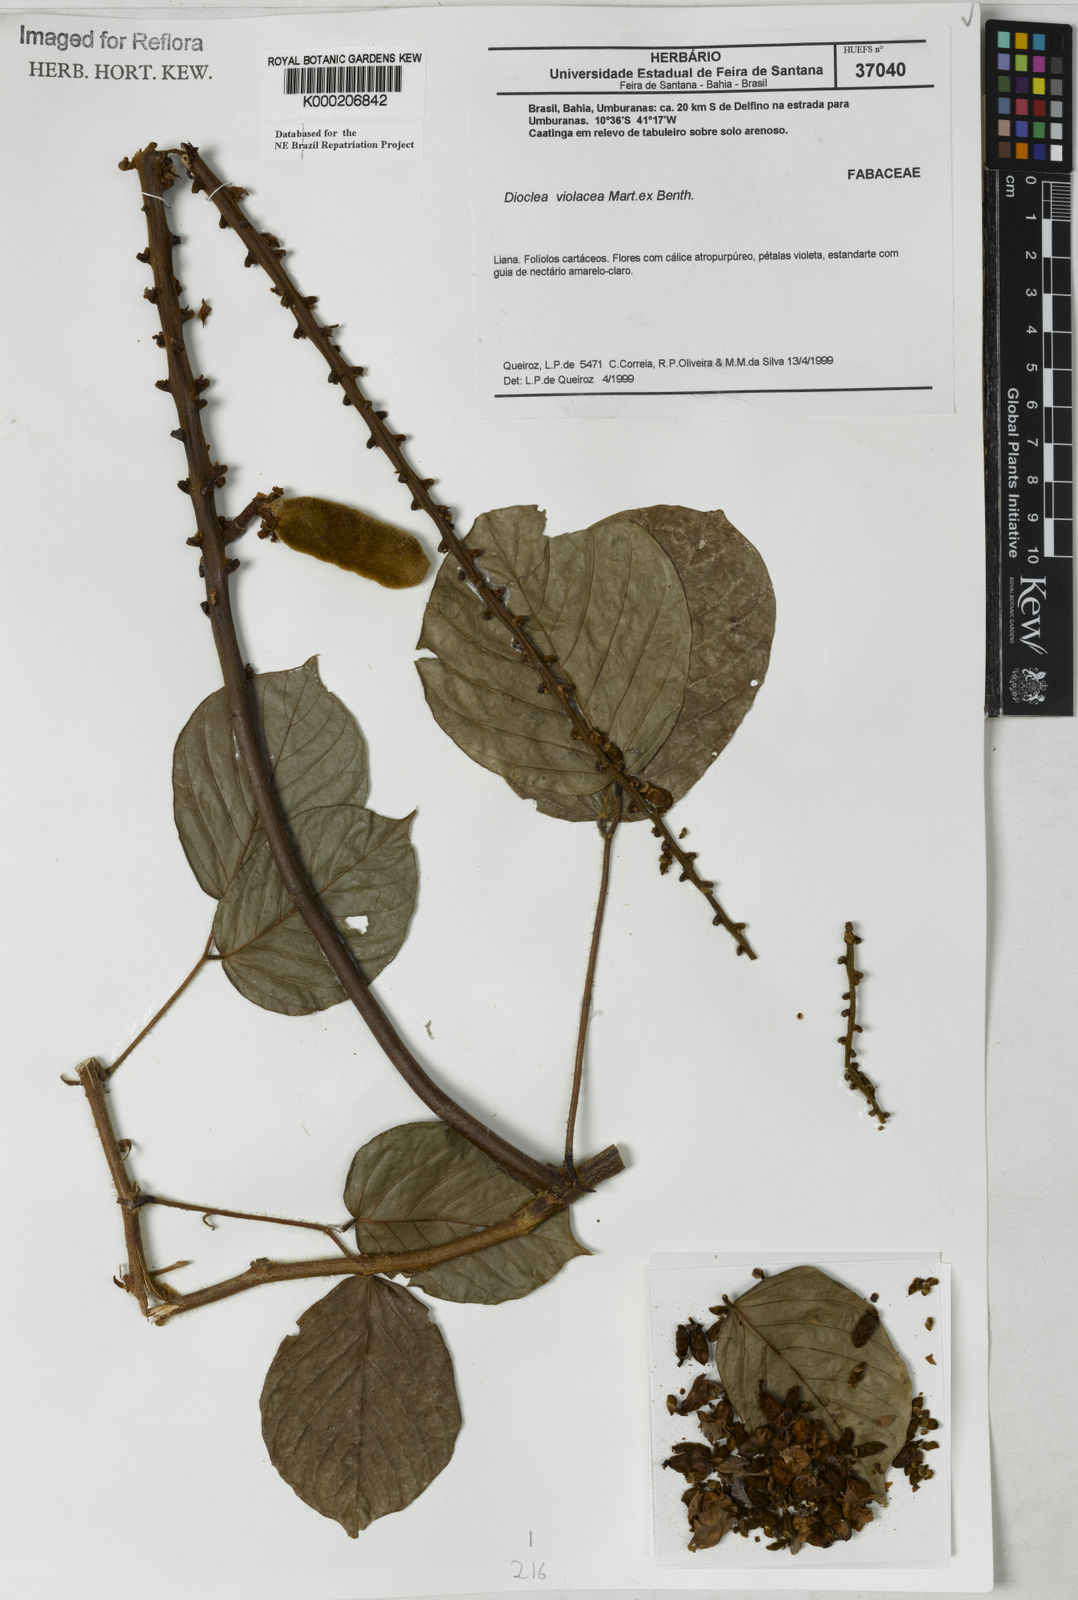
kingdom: Plantae
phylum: Tracheophyta
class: Magnoliopsida
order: Fabales
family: Fabaceae
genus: Macropsychanthus
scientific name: Macropsychanthus violaceus
